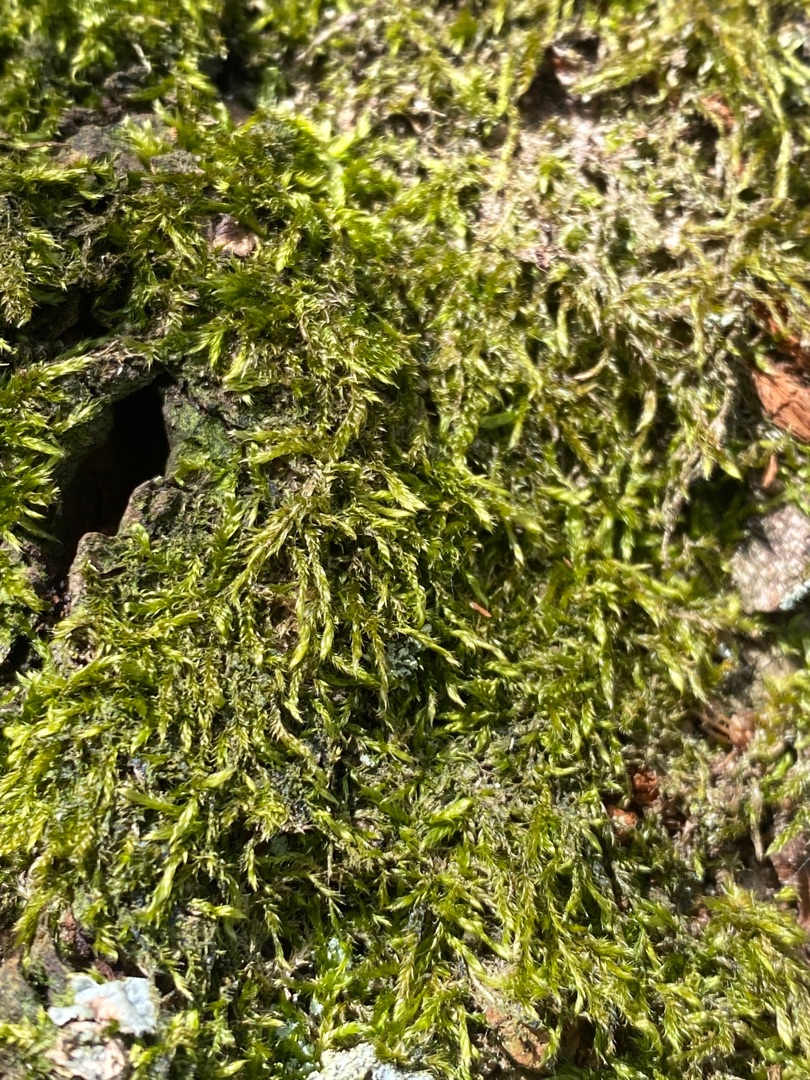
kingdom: Plantae
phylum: Bryophyta
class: Bryopsida
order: Hypnales
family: Hypnaceae
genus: Hypnum
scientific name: Hypnum
